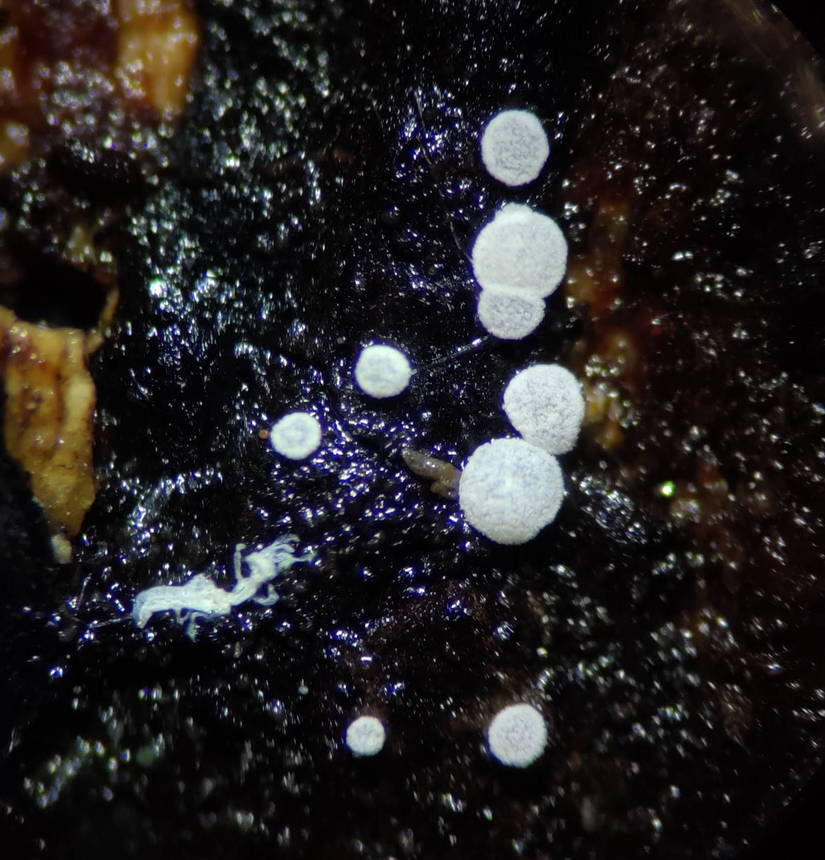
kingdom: Fungi
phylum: Ascomycota
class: Leotiomycetes
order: Helotiales
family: Hyaloscyphaceae
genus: Polydesmia
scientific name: Polydesmia pruinosa
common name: dunskive
